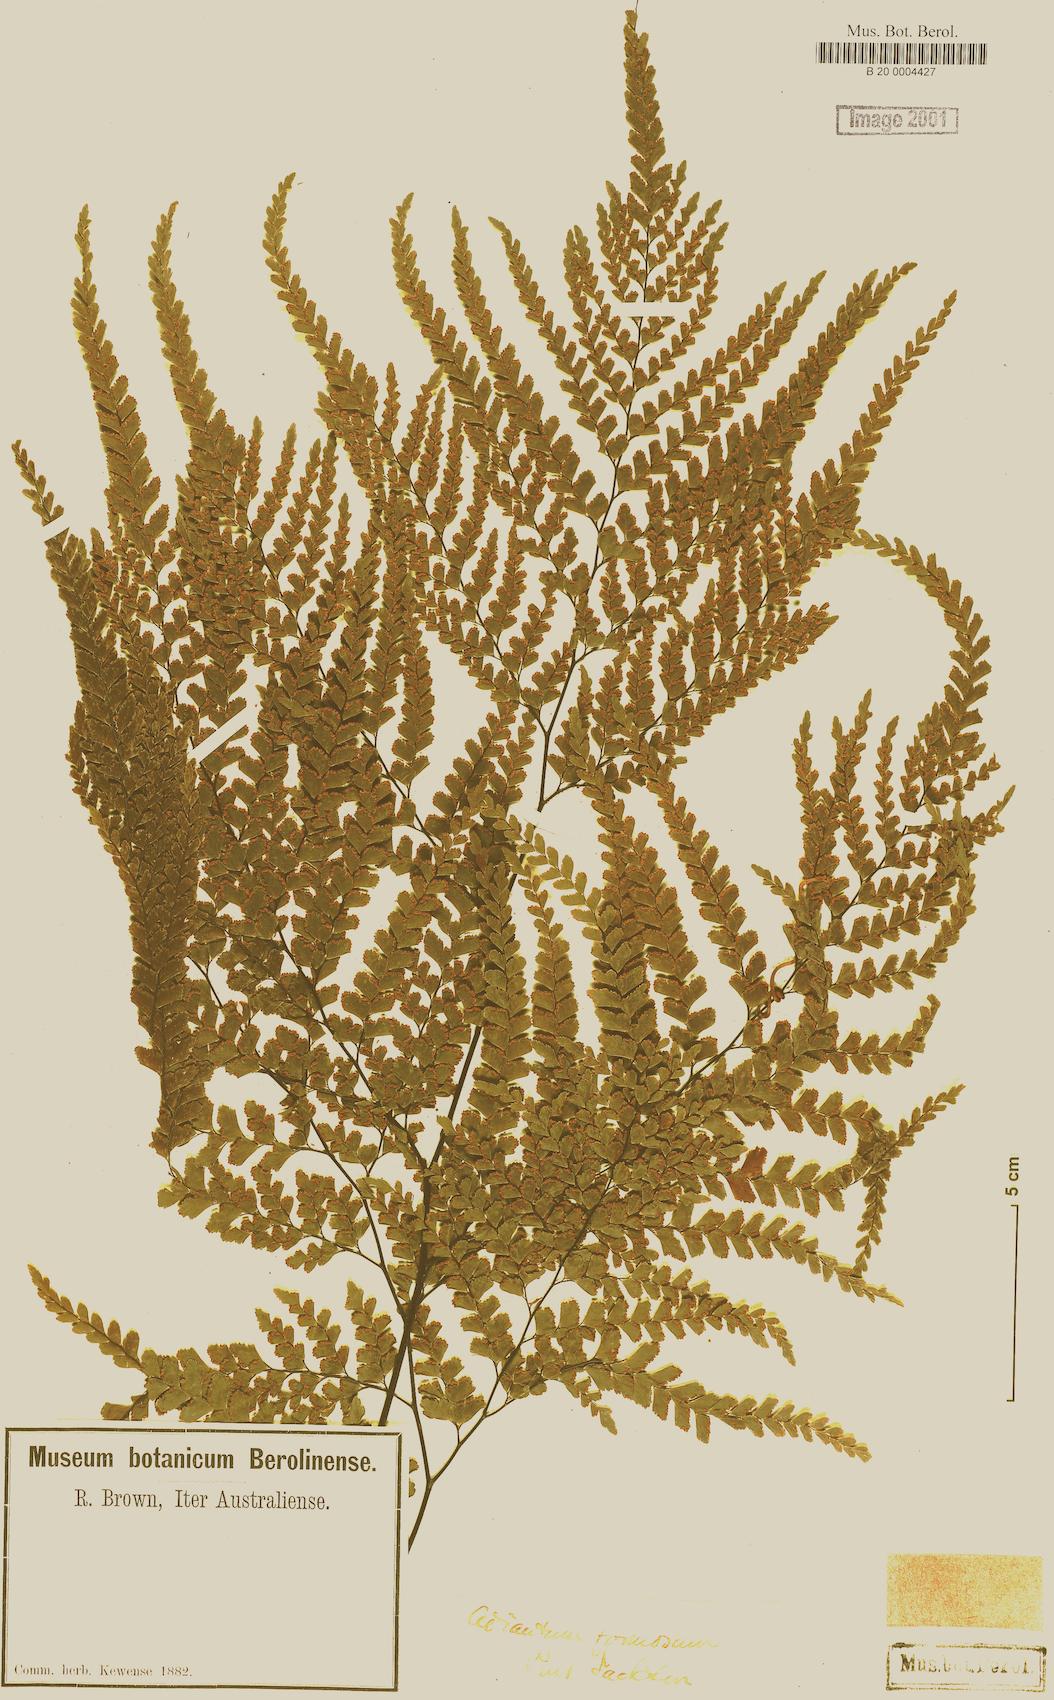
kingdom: Plantae
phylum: Tracheophyta
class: Polypodiopsida
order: Polypodiales
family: Pteridaceae
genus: Adiantum
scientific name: Adiantum formosum
